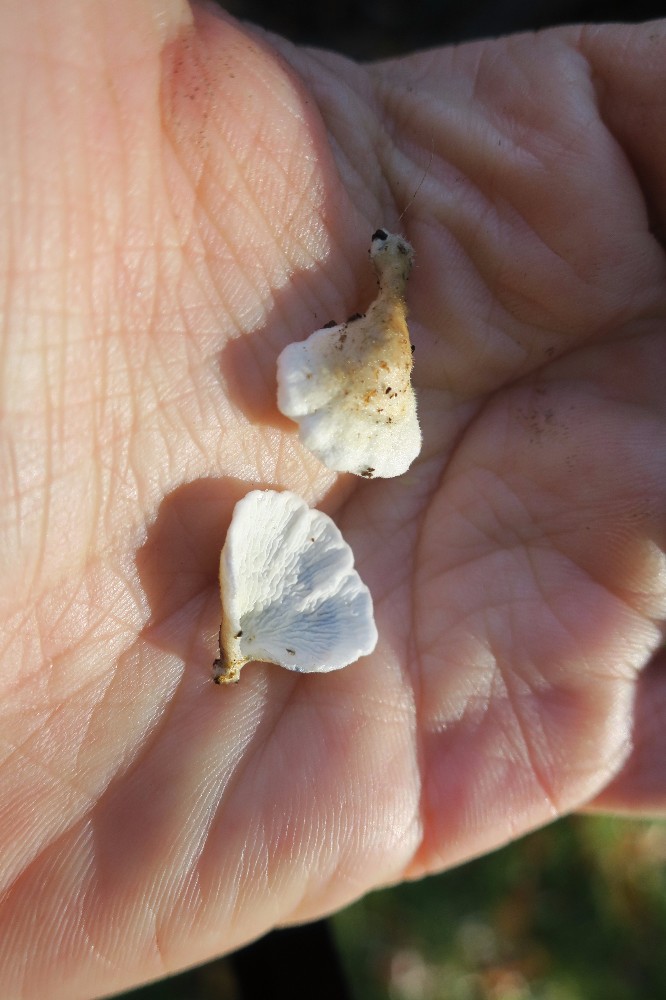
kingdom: Fungi
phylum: Basidiomycota
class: Agaricomycetes
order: Amylocorticiales
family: Amylocorticiaceae
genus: Plicaturopsis
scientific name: Plicaturopsis crispa
